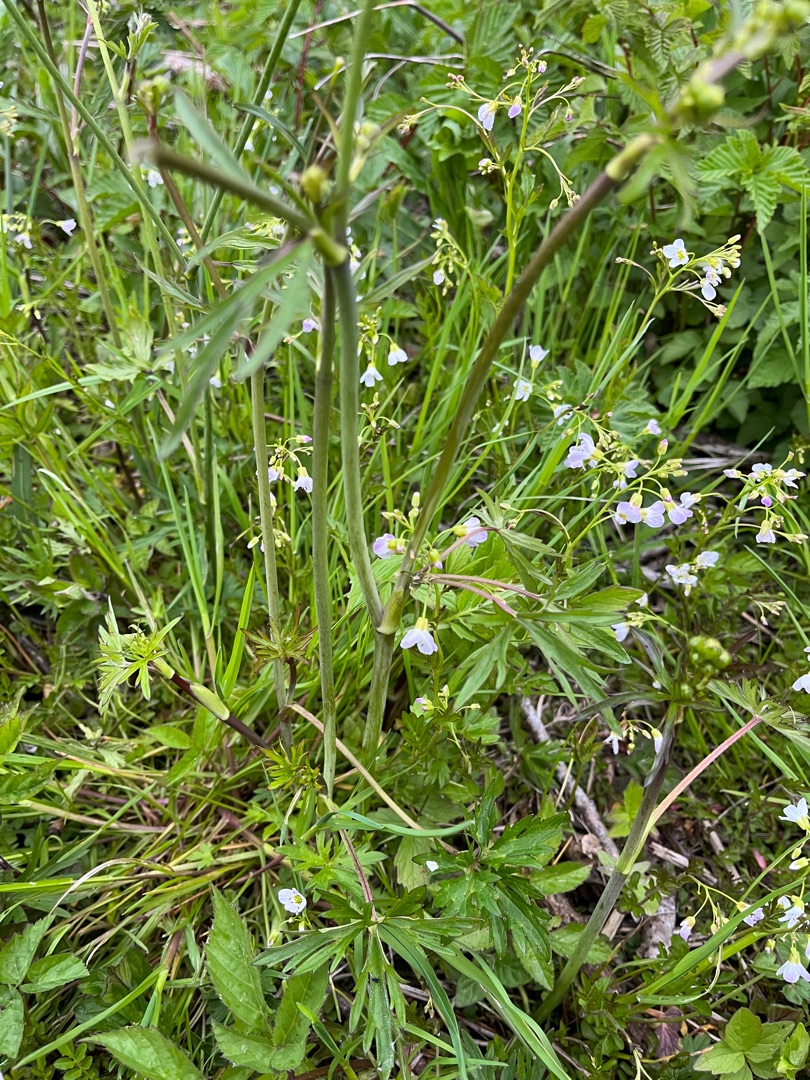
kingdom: Plantae
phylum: Tracheophyta
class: Magnoliopsida
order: Ranunculales
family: Ranunculaceae
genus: Ranunculus
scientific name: Ranunculus acris
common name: Bidende ranunkel
